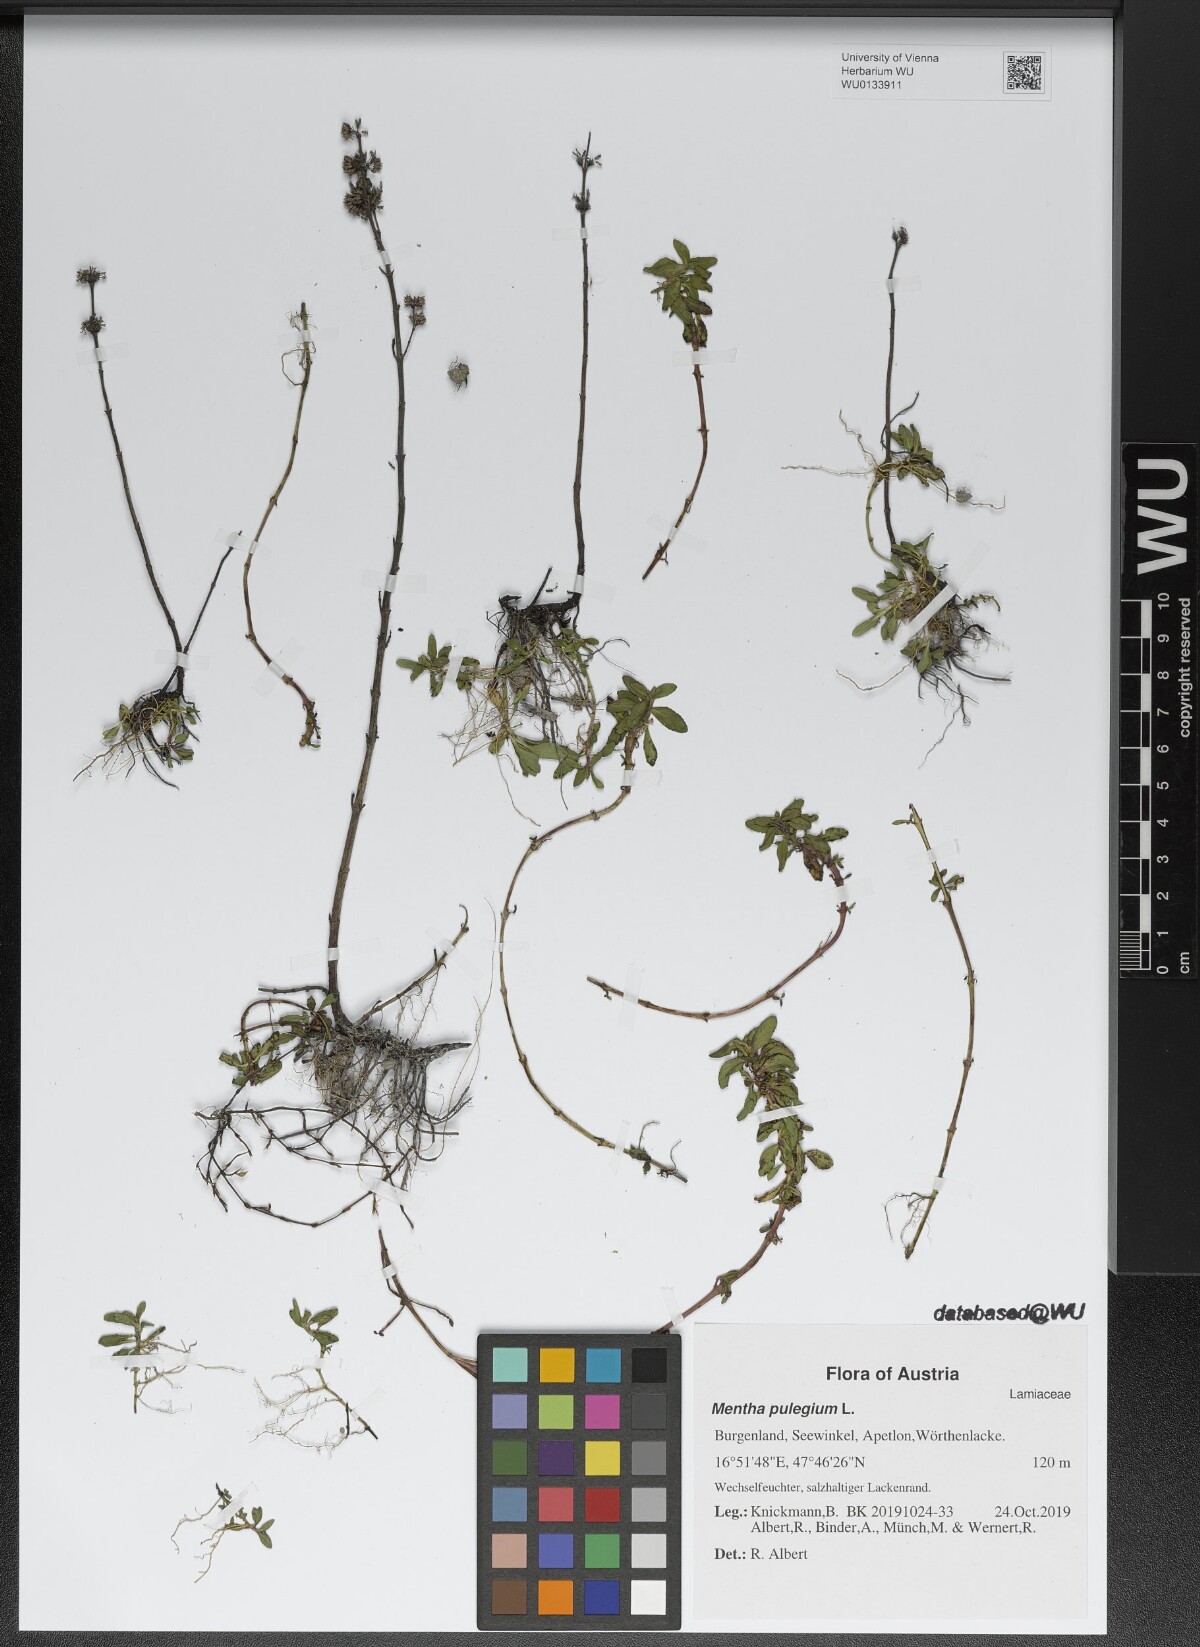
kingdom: Plantae
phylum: Tracheophyta
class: Magnoliopsida
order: Lamiales
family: Lamiaceae
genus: Mentha
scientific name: Mentha pulegium
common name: Pennyroyal
